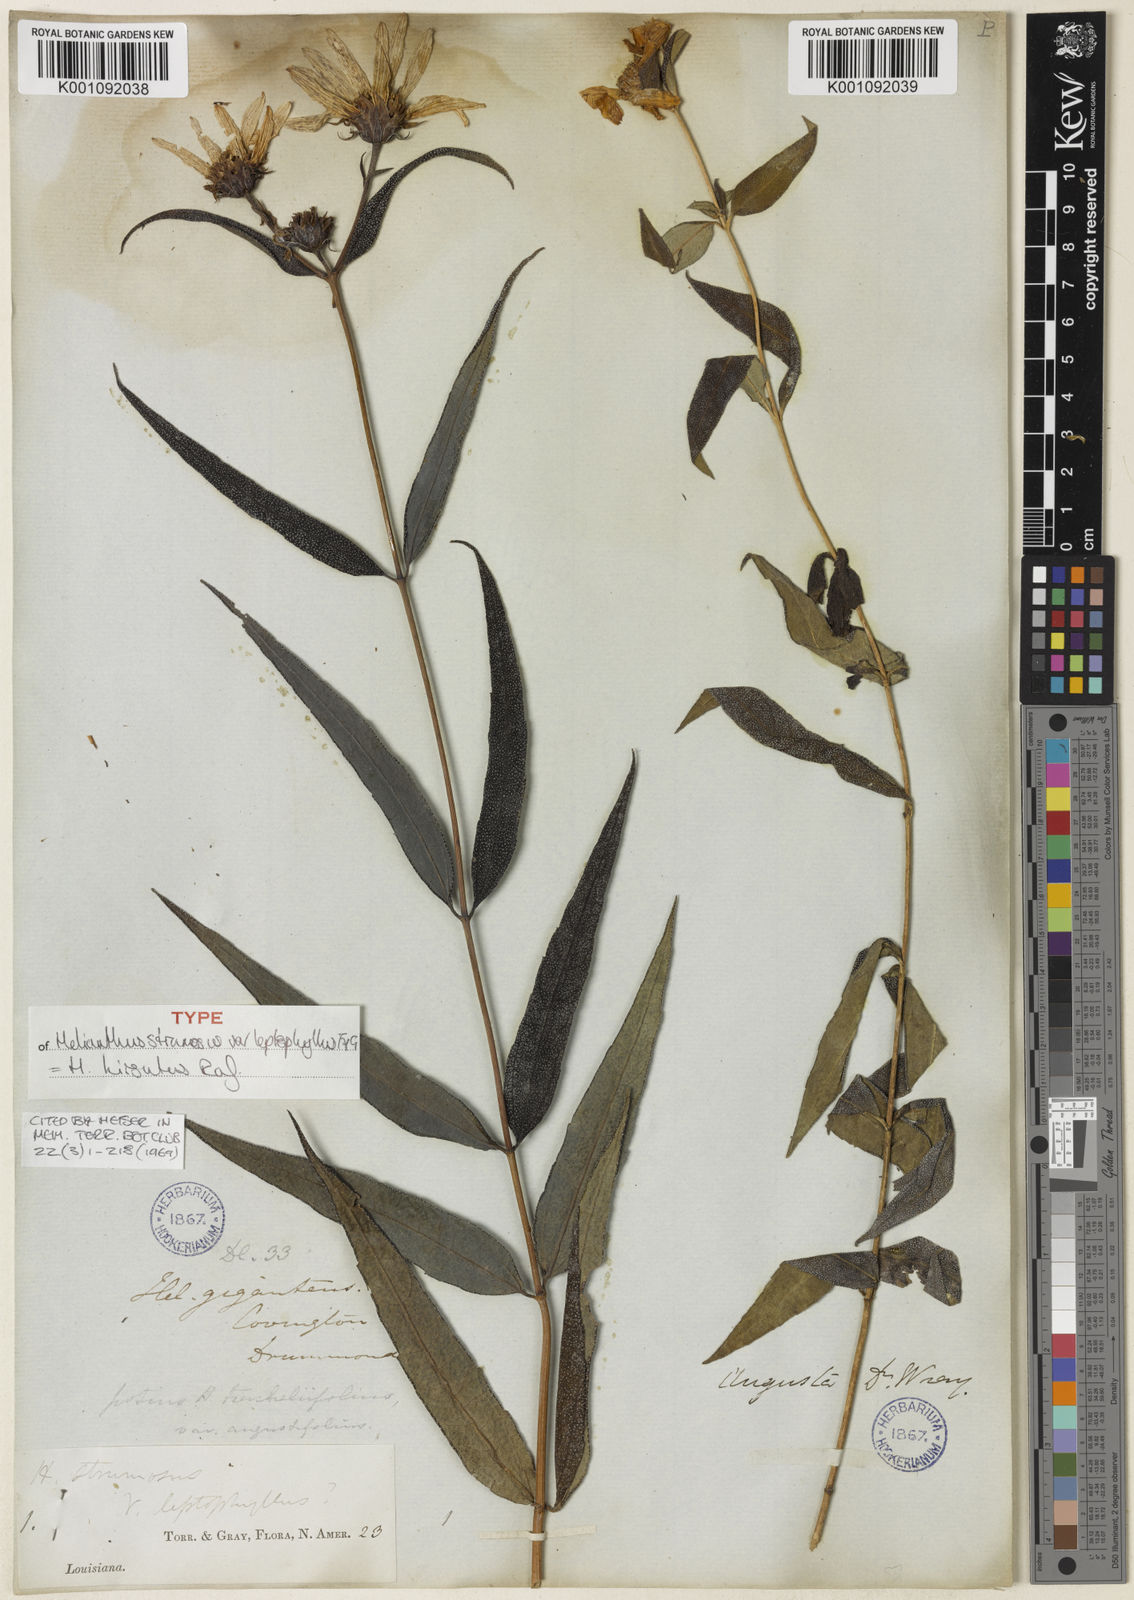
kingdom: Plantae
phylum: Tracheophyta
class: Magnoliopsida
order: Asterales
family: Asteraceae
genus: Helianthus
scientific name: Helianthus hirsutus
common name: Hairy sunflower
